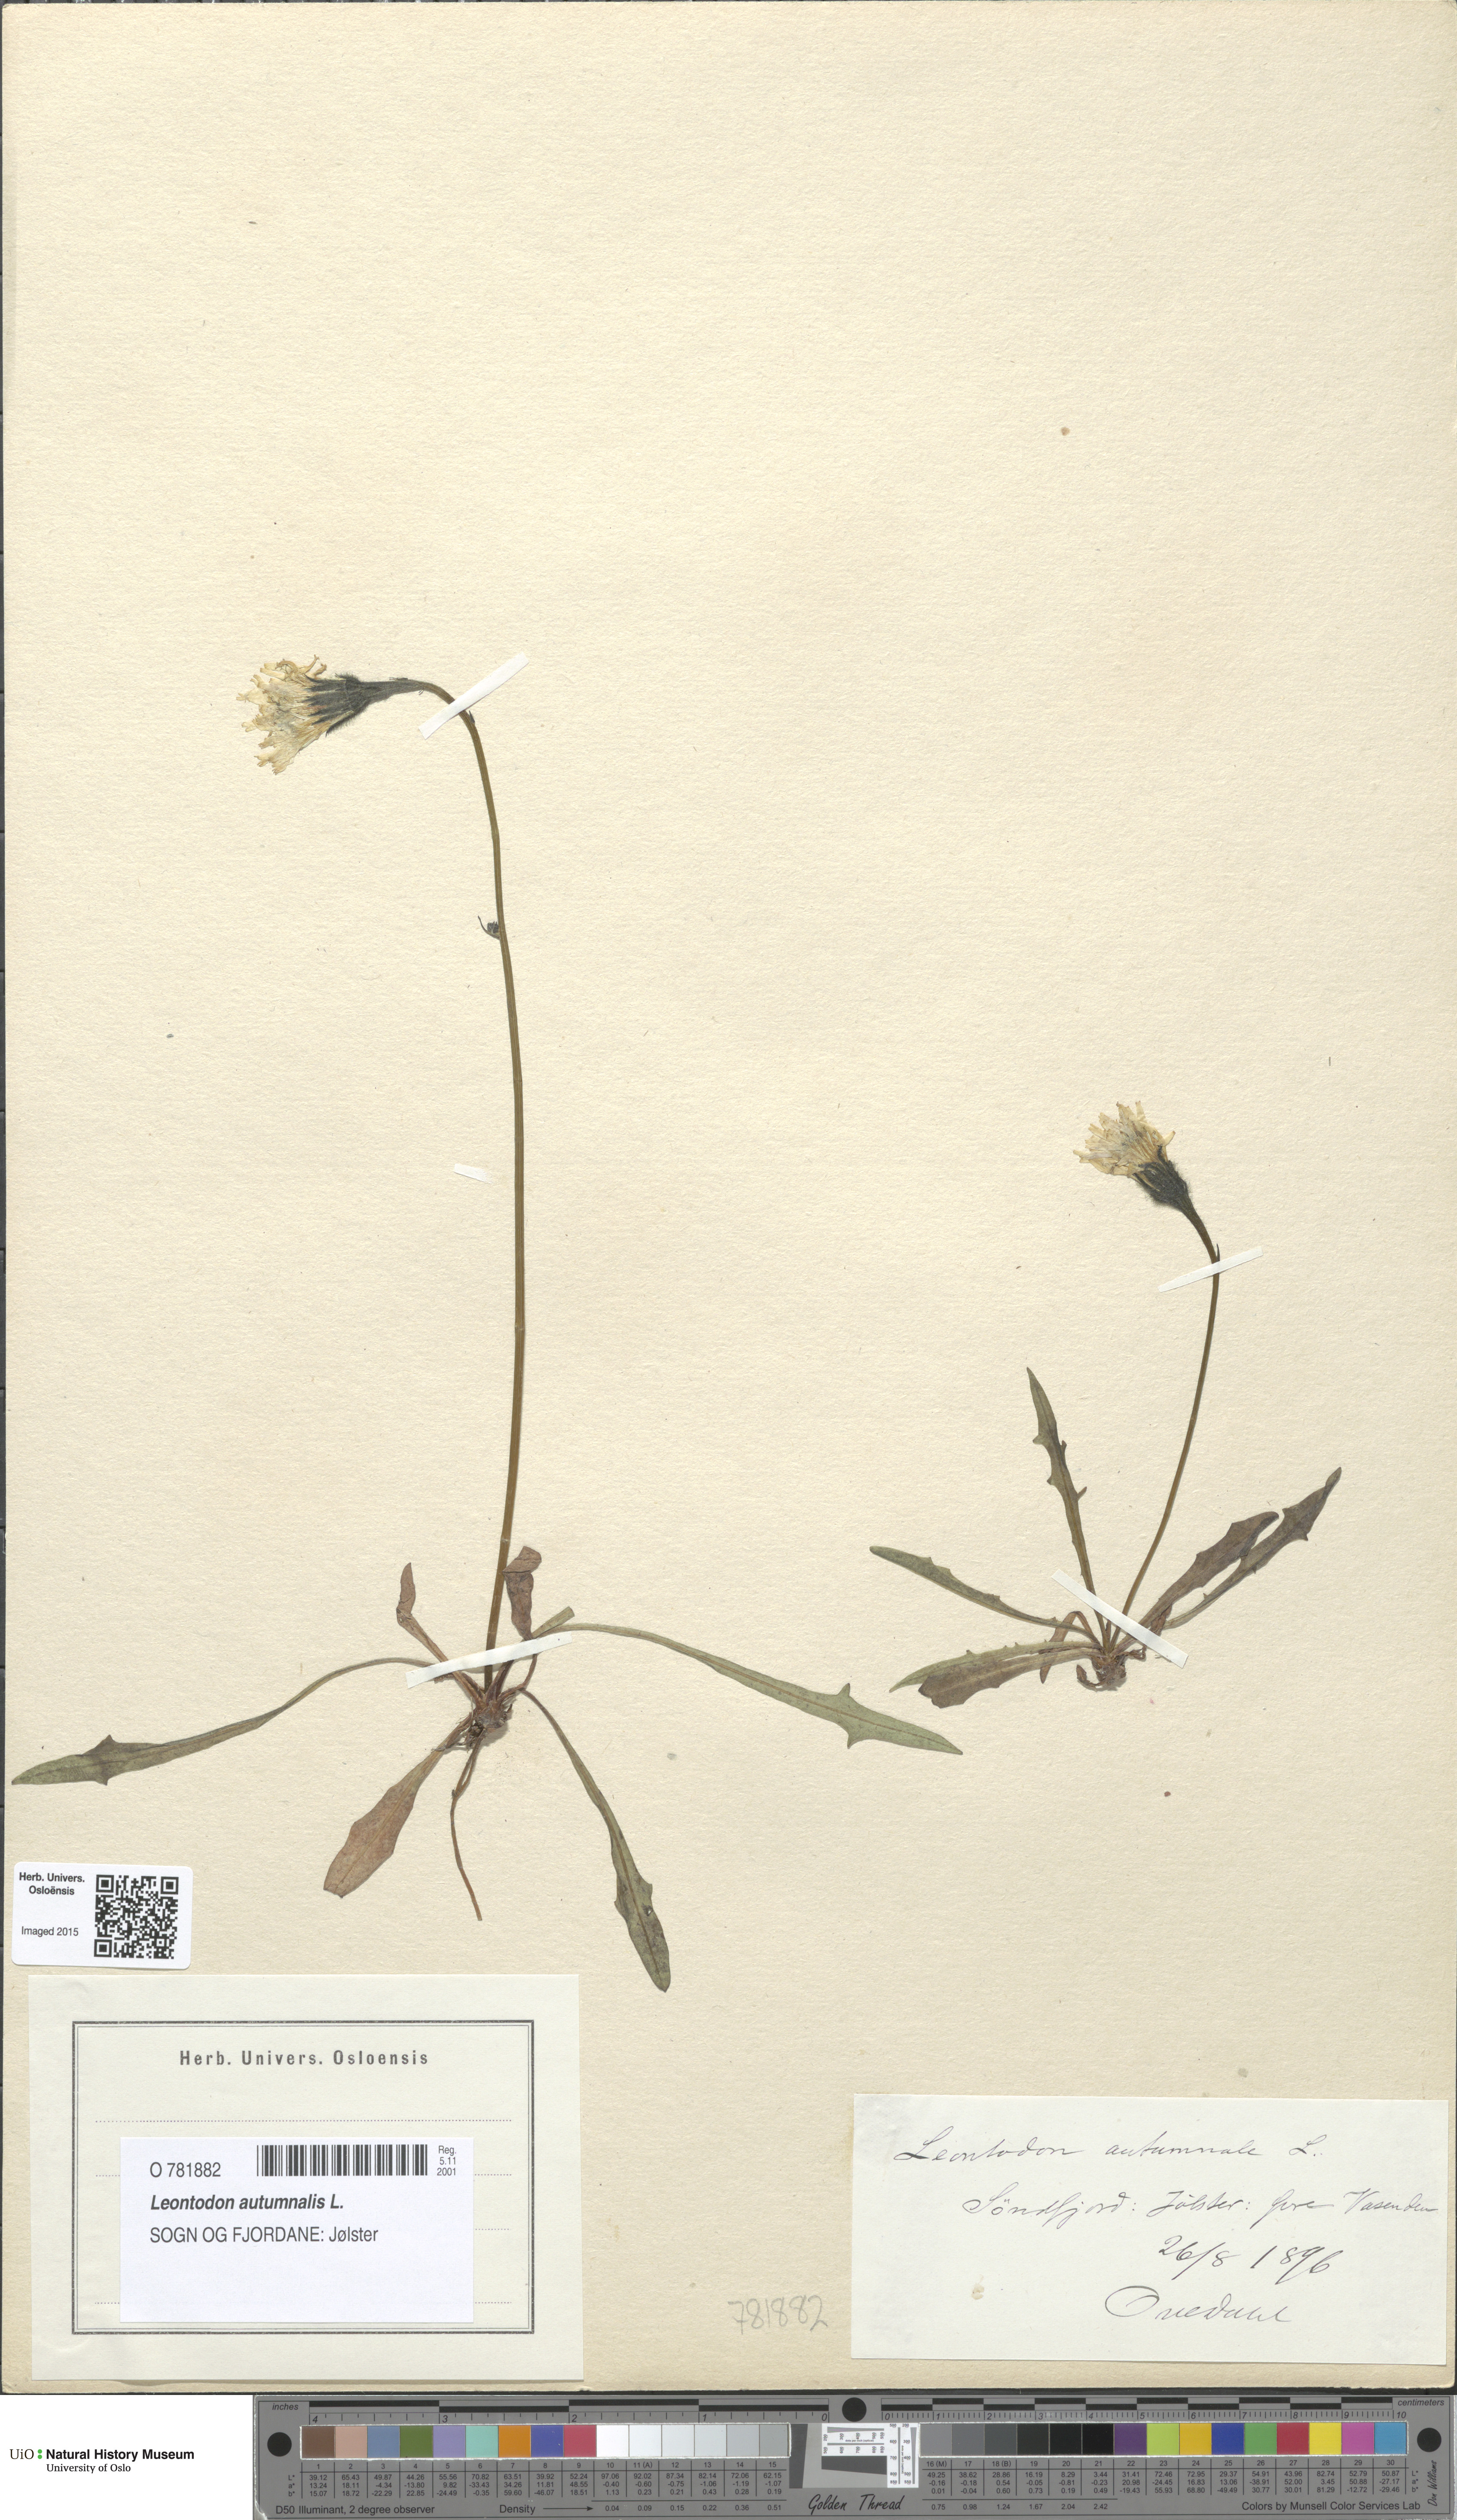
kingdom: Plantae
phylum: Tracheophyta
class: Magnoliopsida
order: Asterales
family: Asteraceae
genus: Scorzoneroides
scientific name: Scorzoneroides autumnalis
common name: Autumn hawkbit
